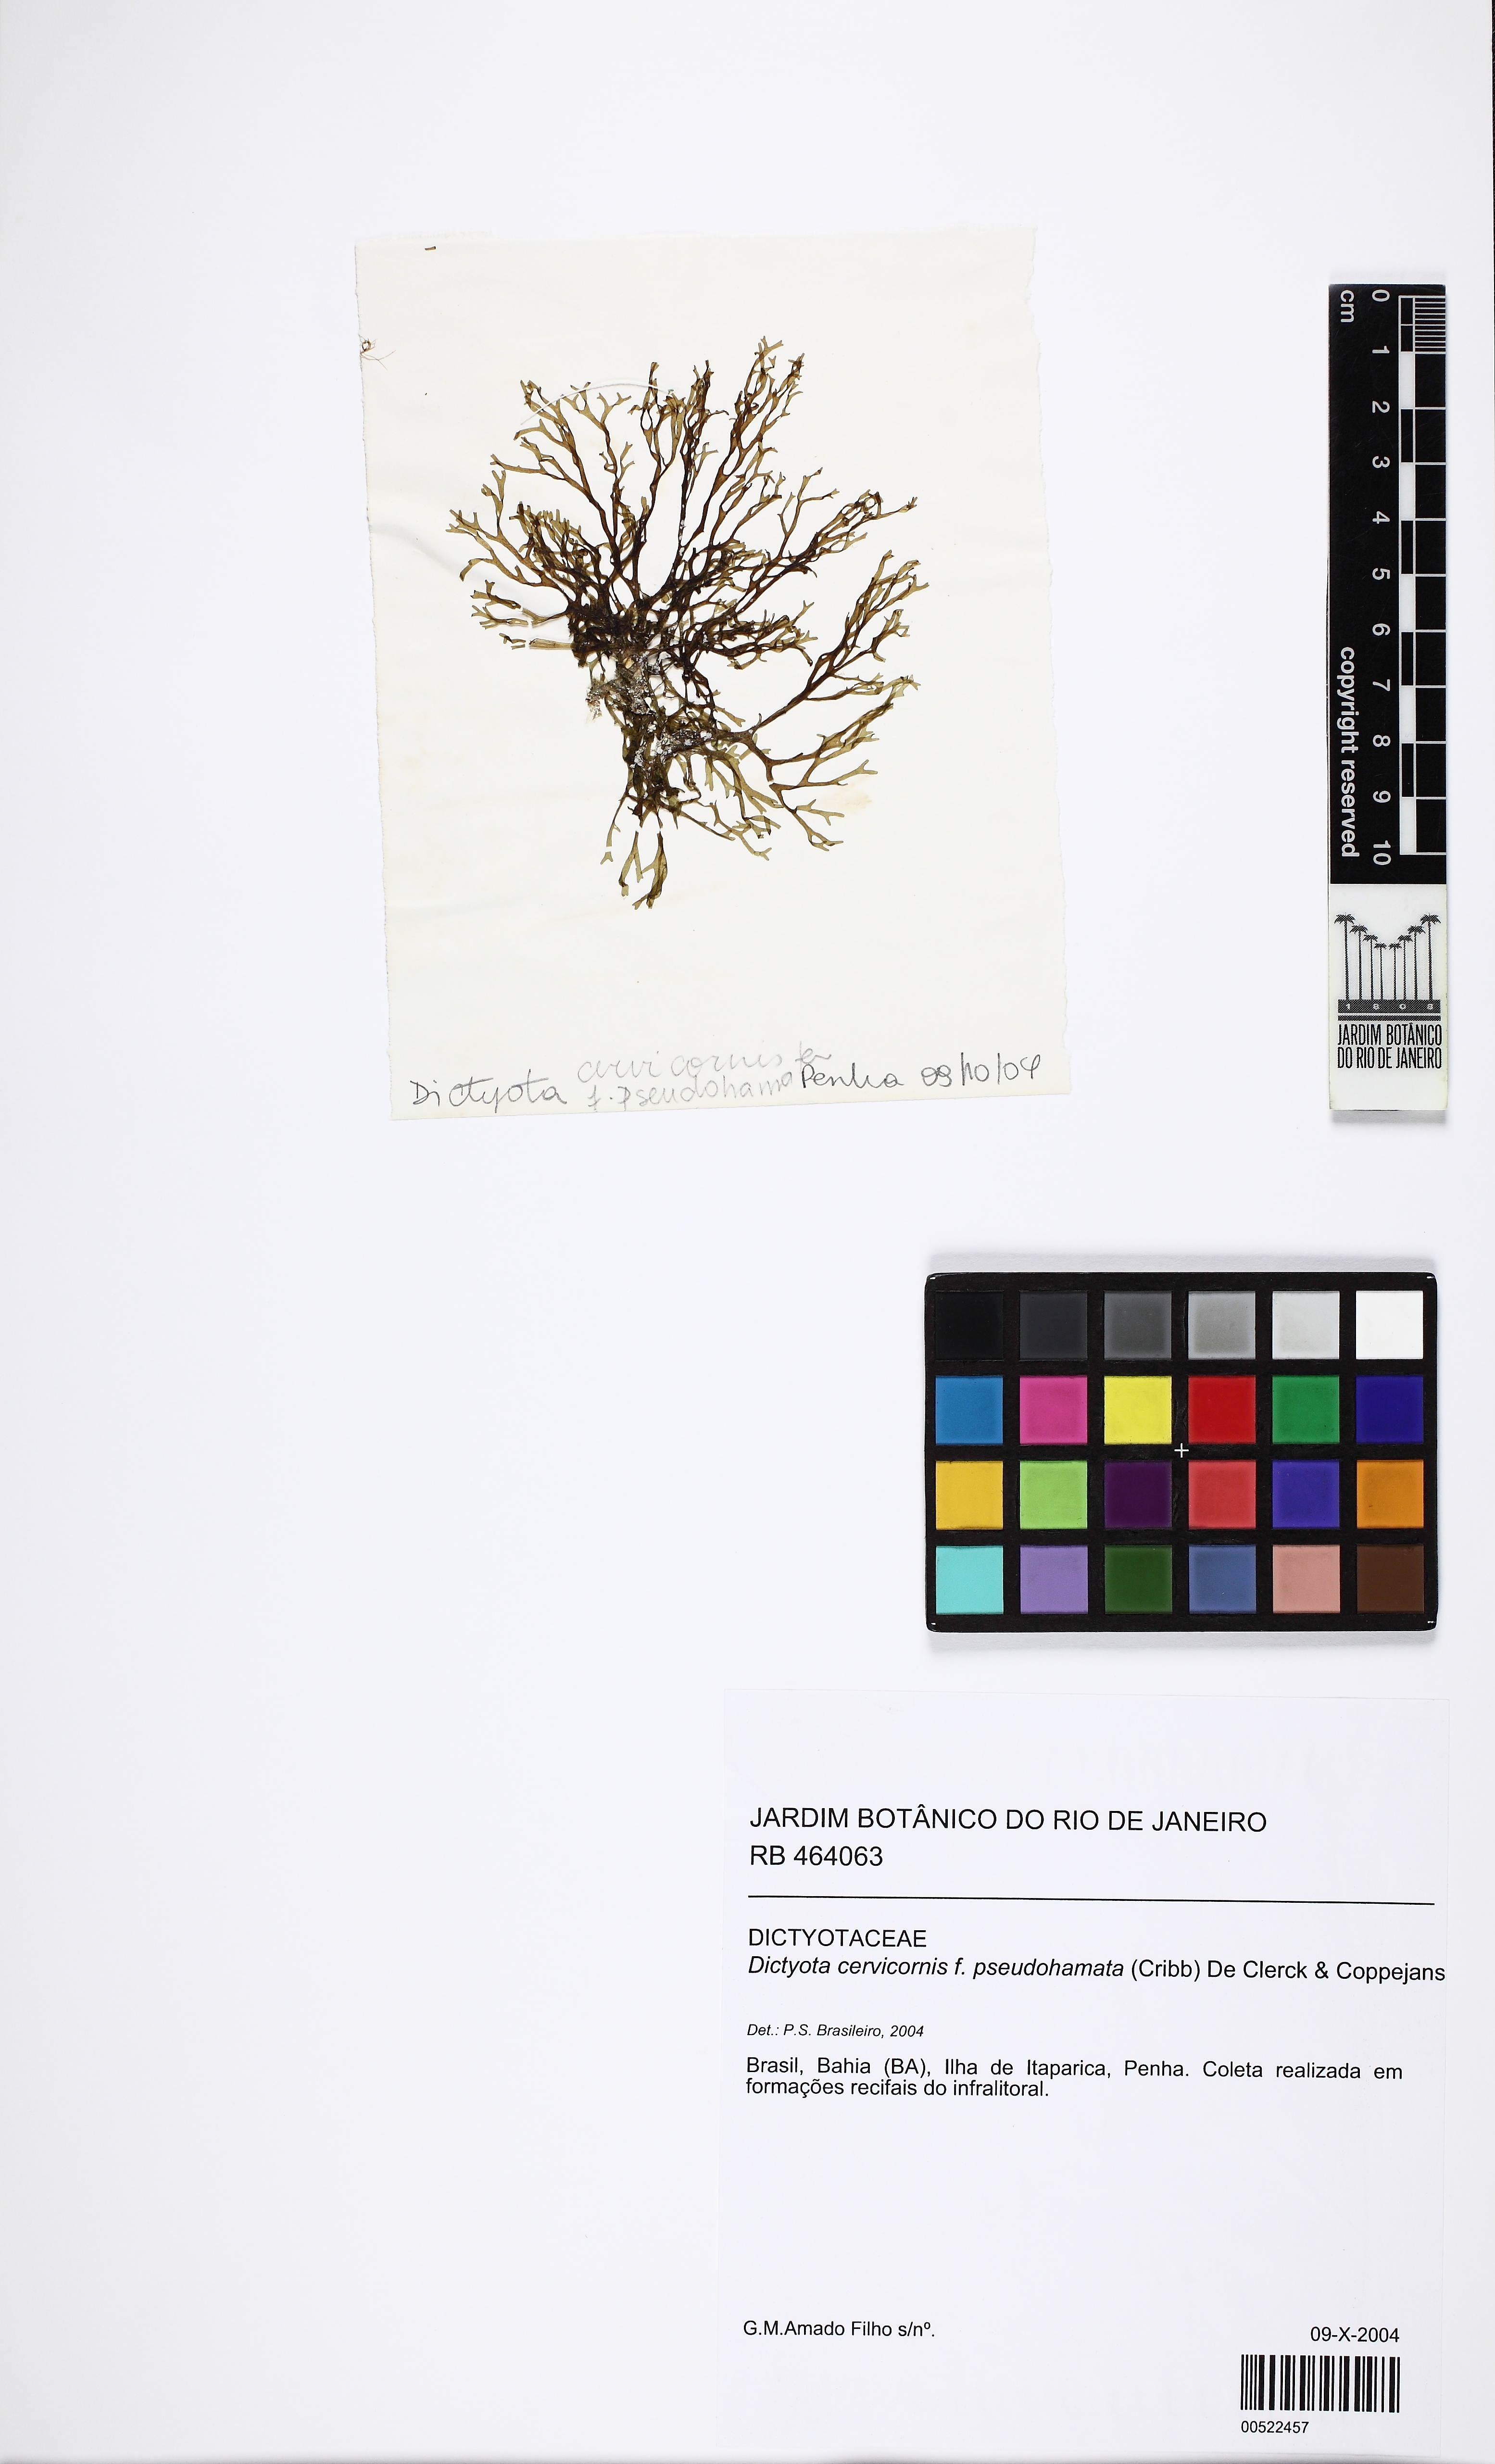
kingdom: Chromista
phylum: Ochrophyta
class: Phaeophyceae
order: Dictyotales
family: Dictyotaceae
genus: Canistrocarpus
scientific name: Canistrocarpus cervicornis
